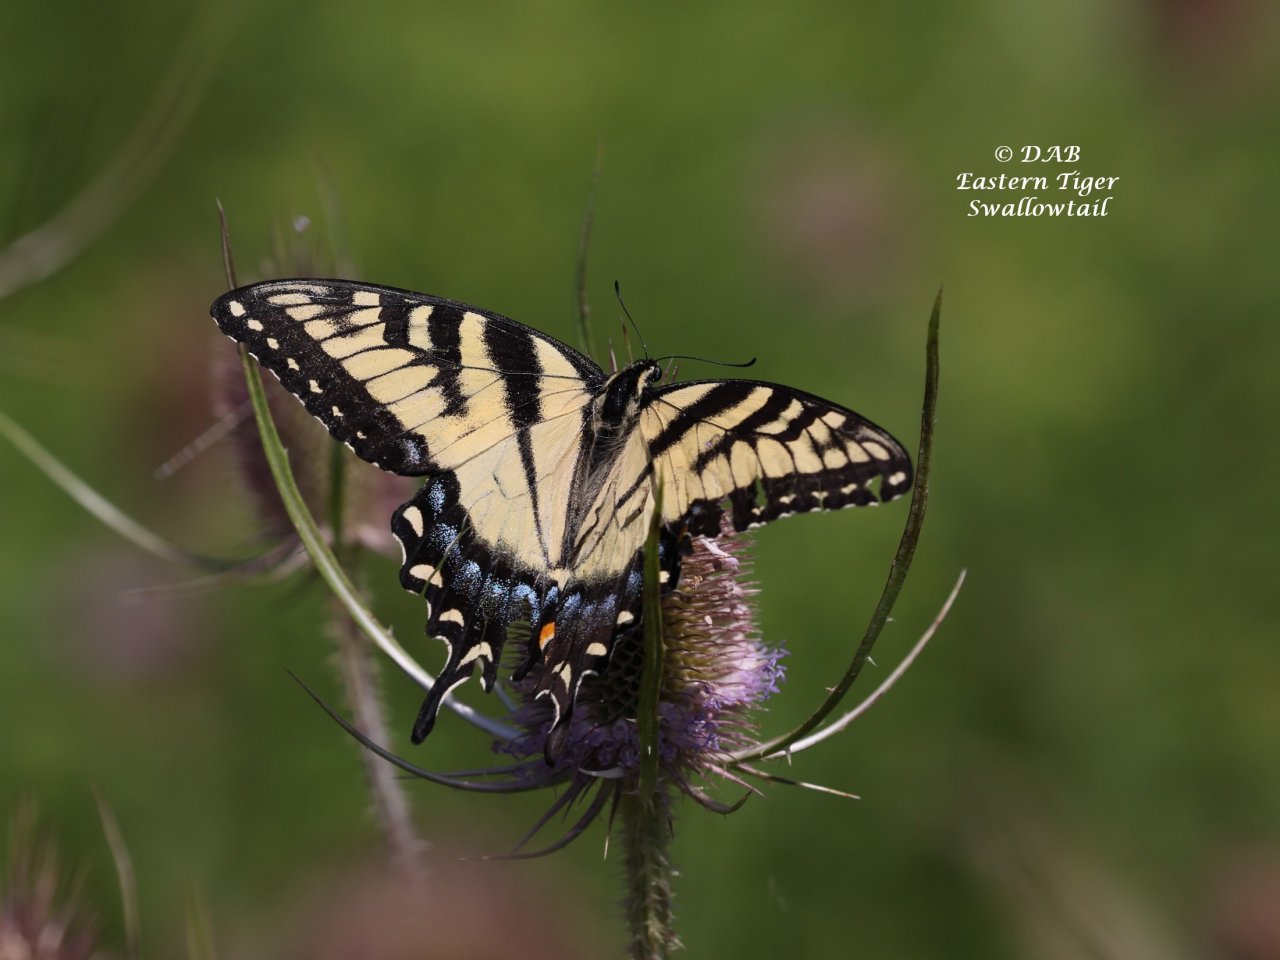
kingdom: Animalia
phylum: Arthropoda
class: Insecta
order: Lepidoptera
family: Papilionidae
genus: Pterourus
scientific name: Pterourus glaucus
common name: Eastern Tiger Swallowtail
